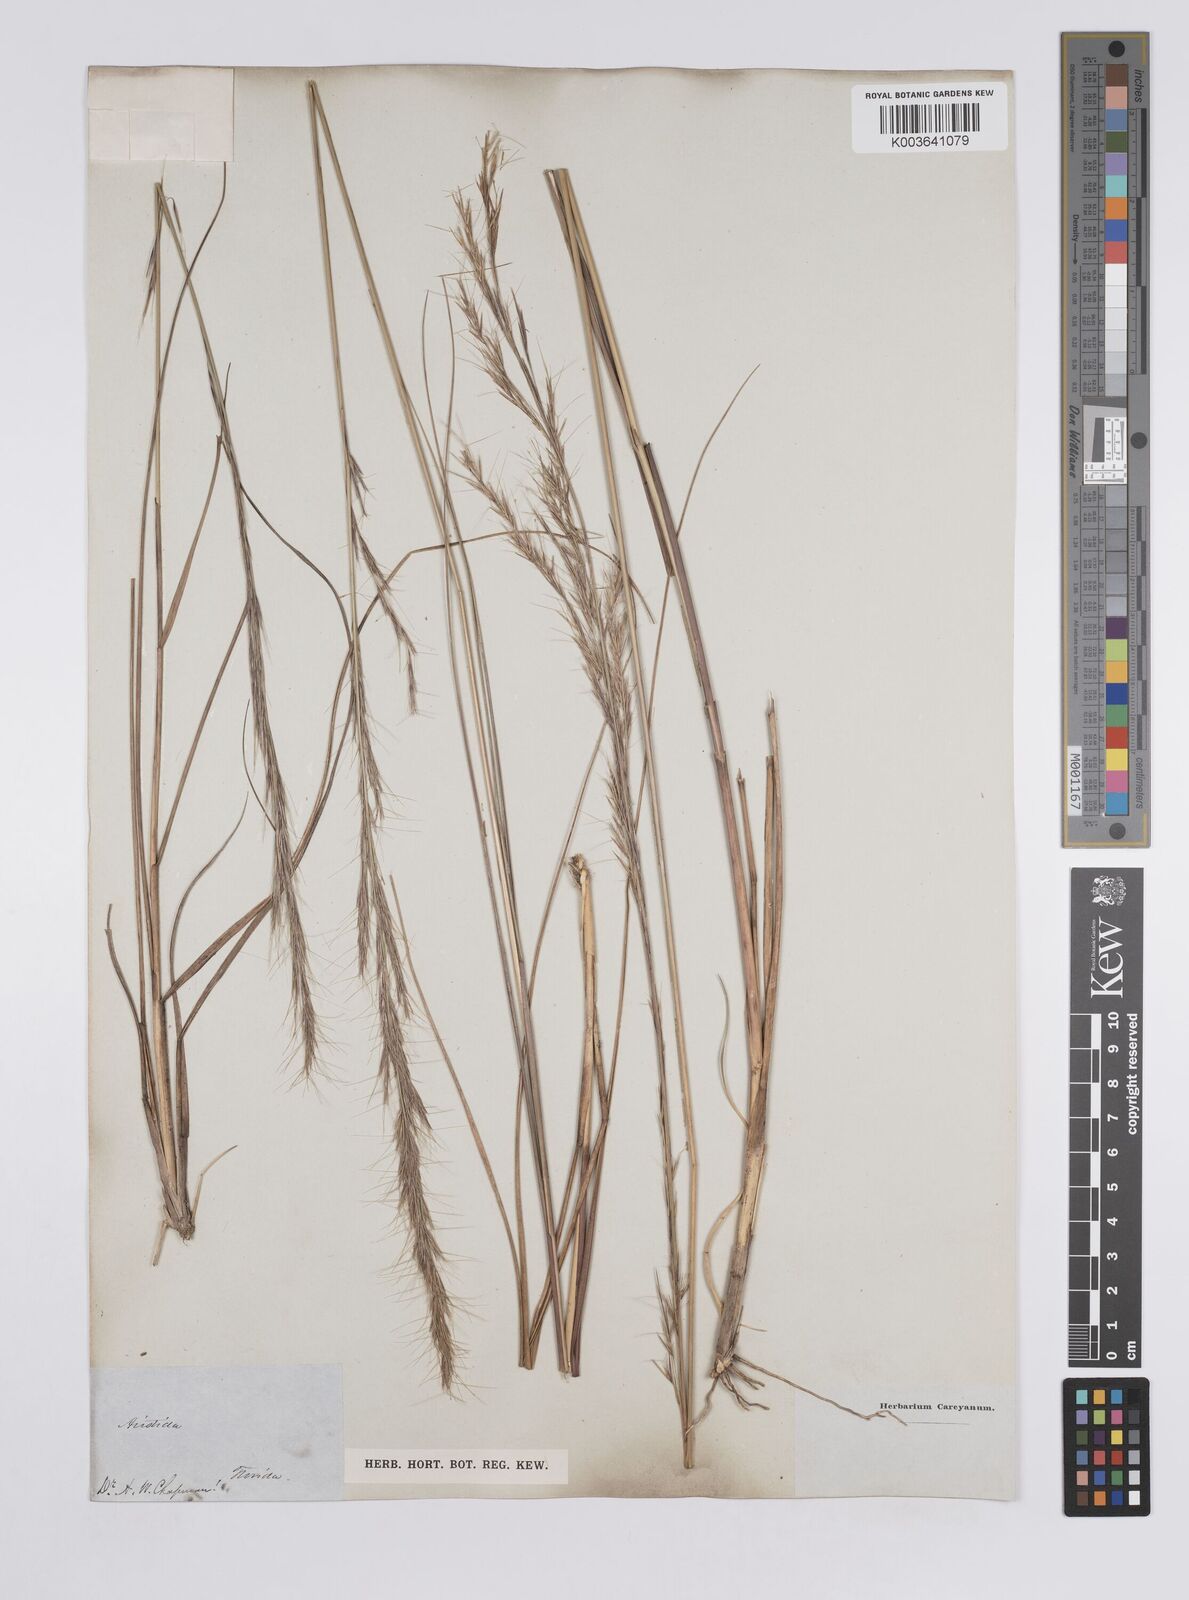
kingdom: Plantae
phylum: Tracheophyta
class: Liliopsida
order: Poales
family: Poaceae
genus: Aristida
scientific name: Aristida purpurascens
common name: Arrow-feather
